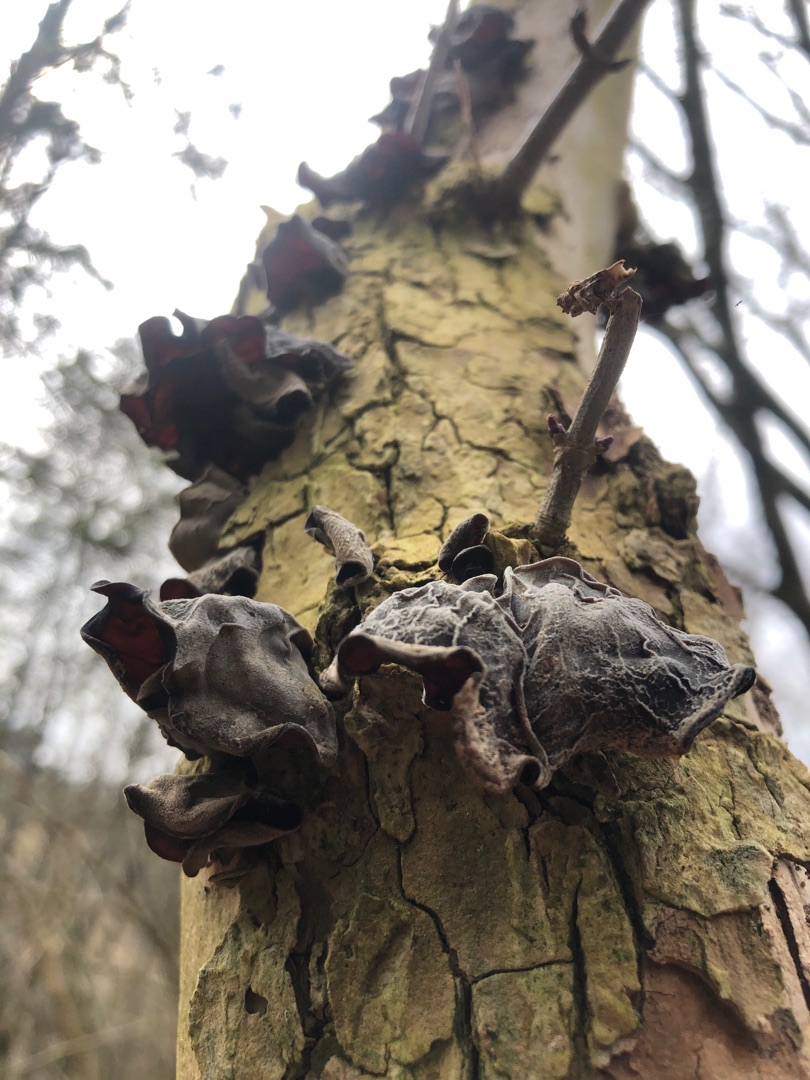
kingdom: Fungi
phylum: Basidiomycota
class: Agaricomycetes
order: Auriculariales
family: Auriculariaceae
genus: Auricularia
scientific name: Auricularia auricula-judae
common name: Almindelig judasøre
